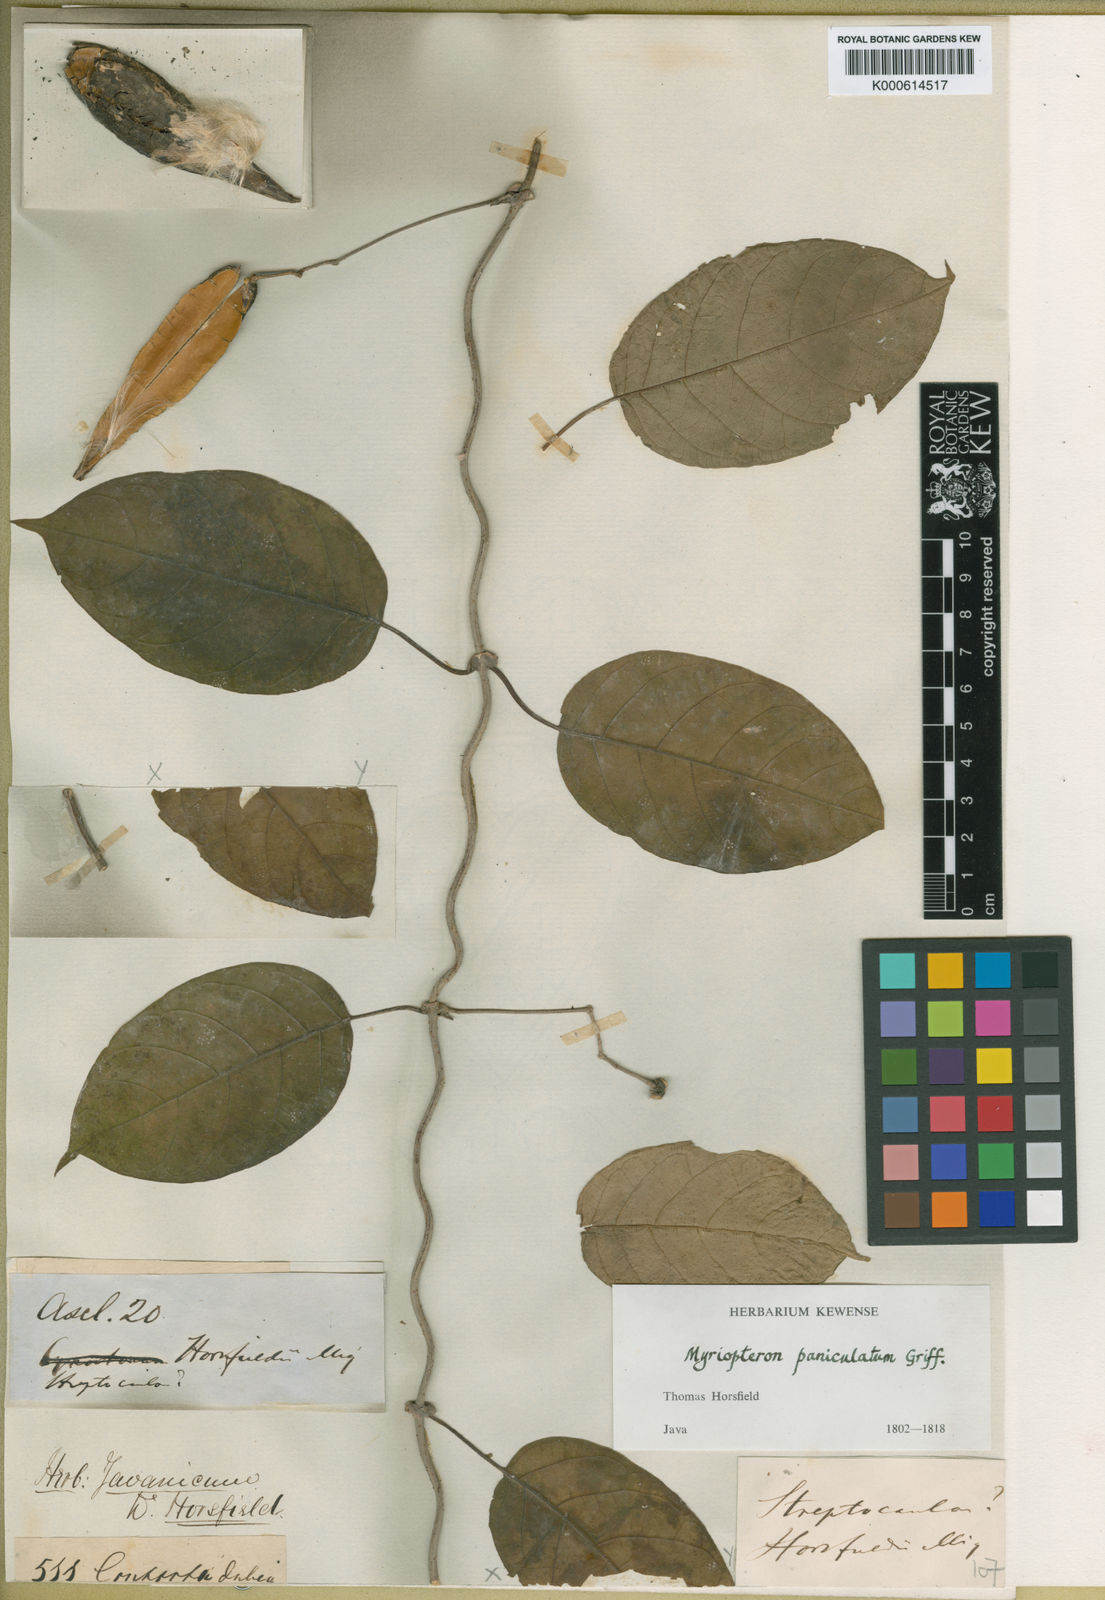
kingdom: Plantae
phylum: Tracheophyta
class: Magnoliopsida
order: Gentianales
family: Apocynaceae
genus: Myriopteron
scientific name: Myriopteron extensum
